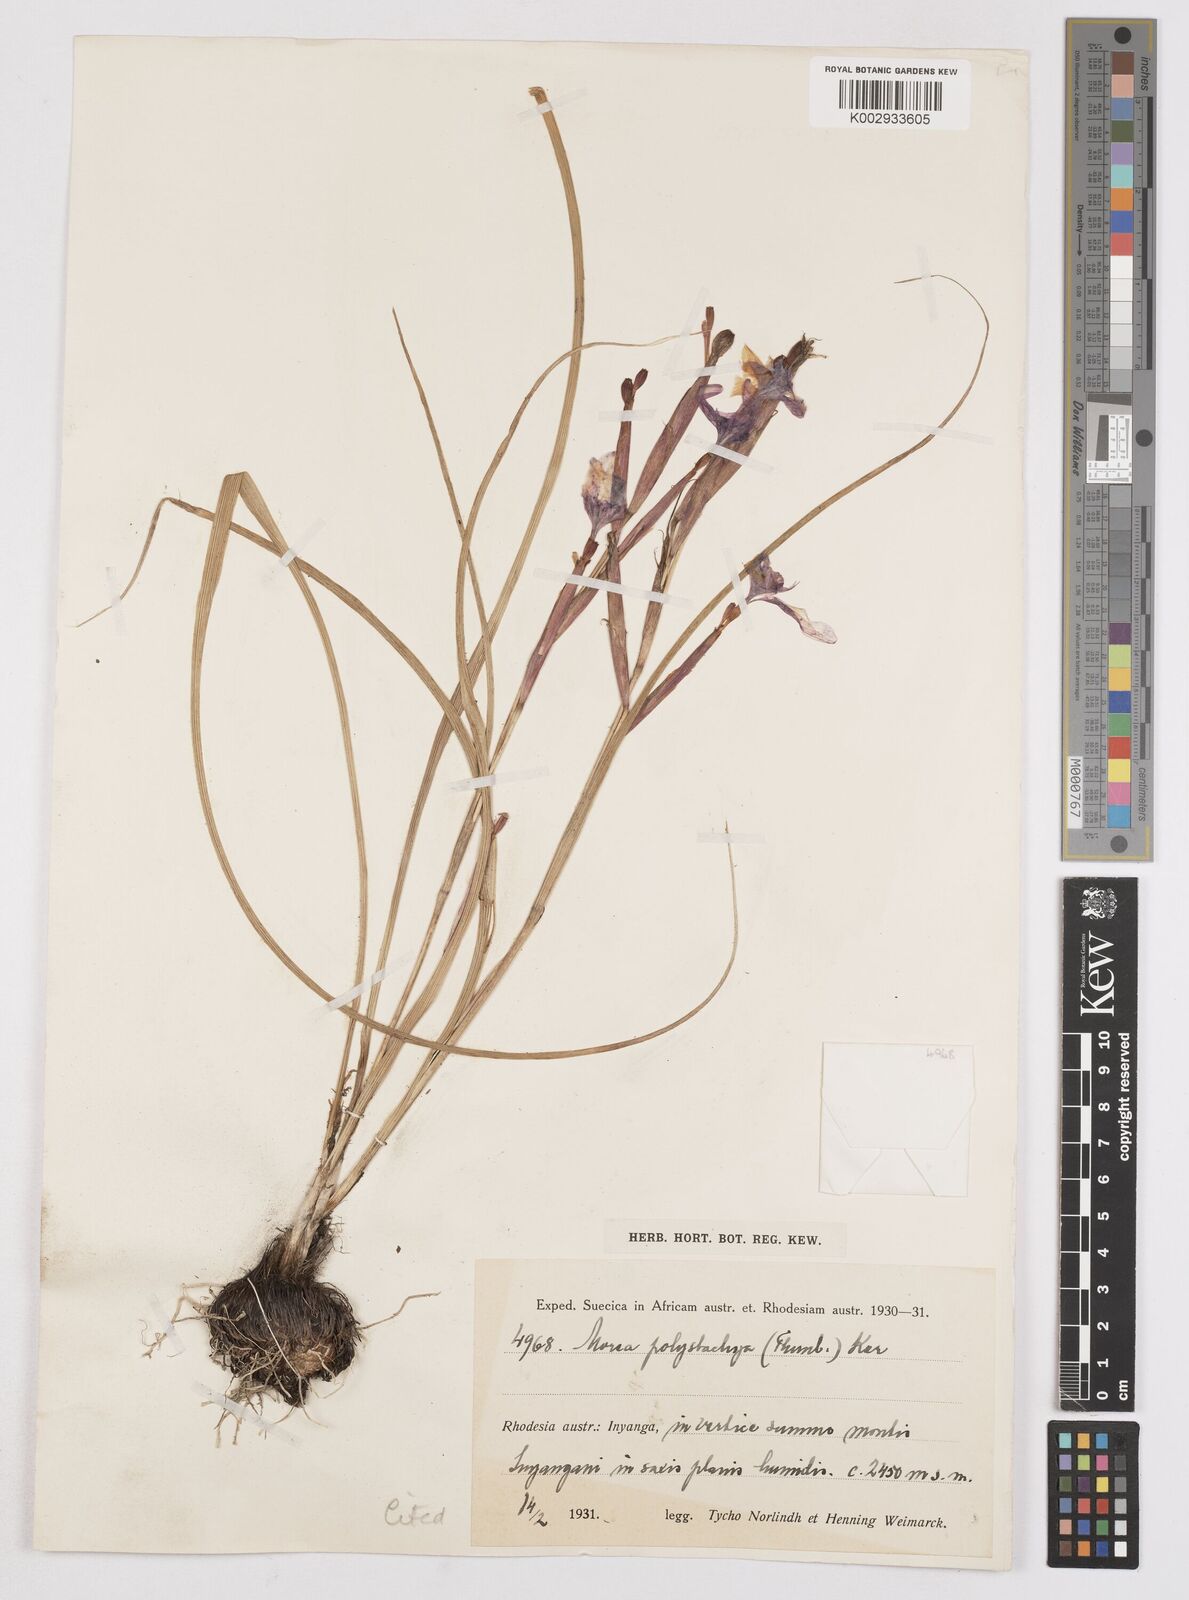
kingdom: Plantae
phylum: Tracheophyta
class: Liliopsida
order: Asparagales
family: Iridaceae
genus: Moraea
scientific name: Moraea carsonii
